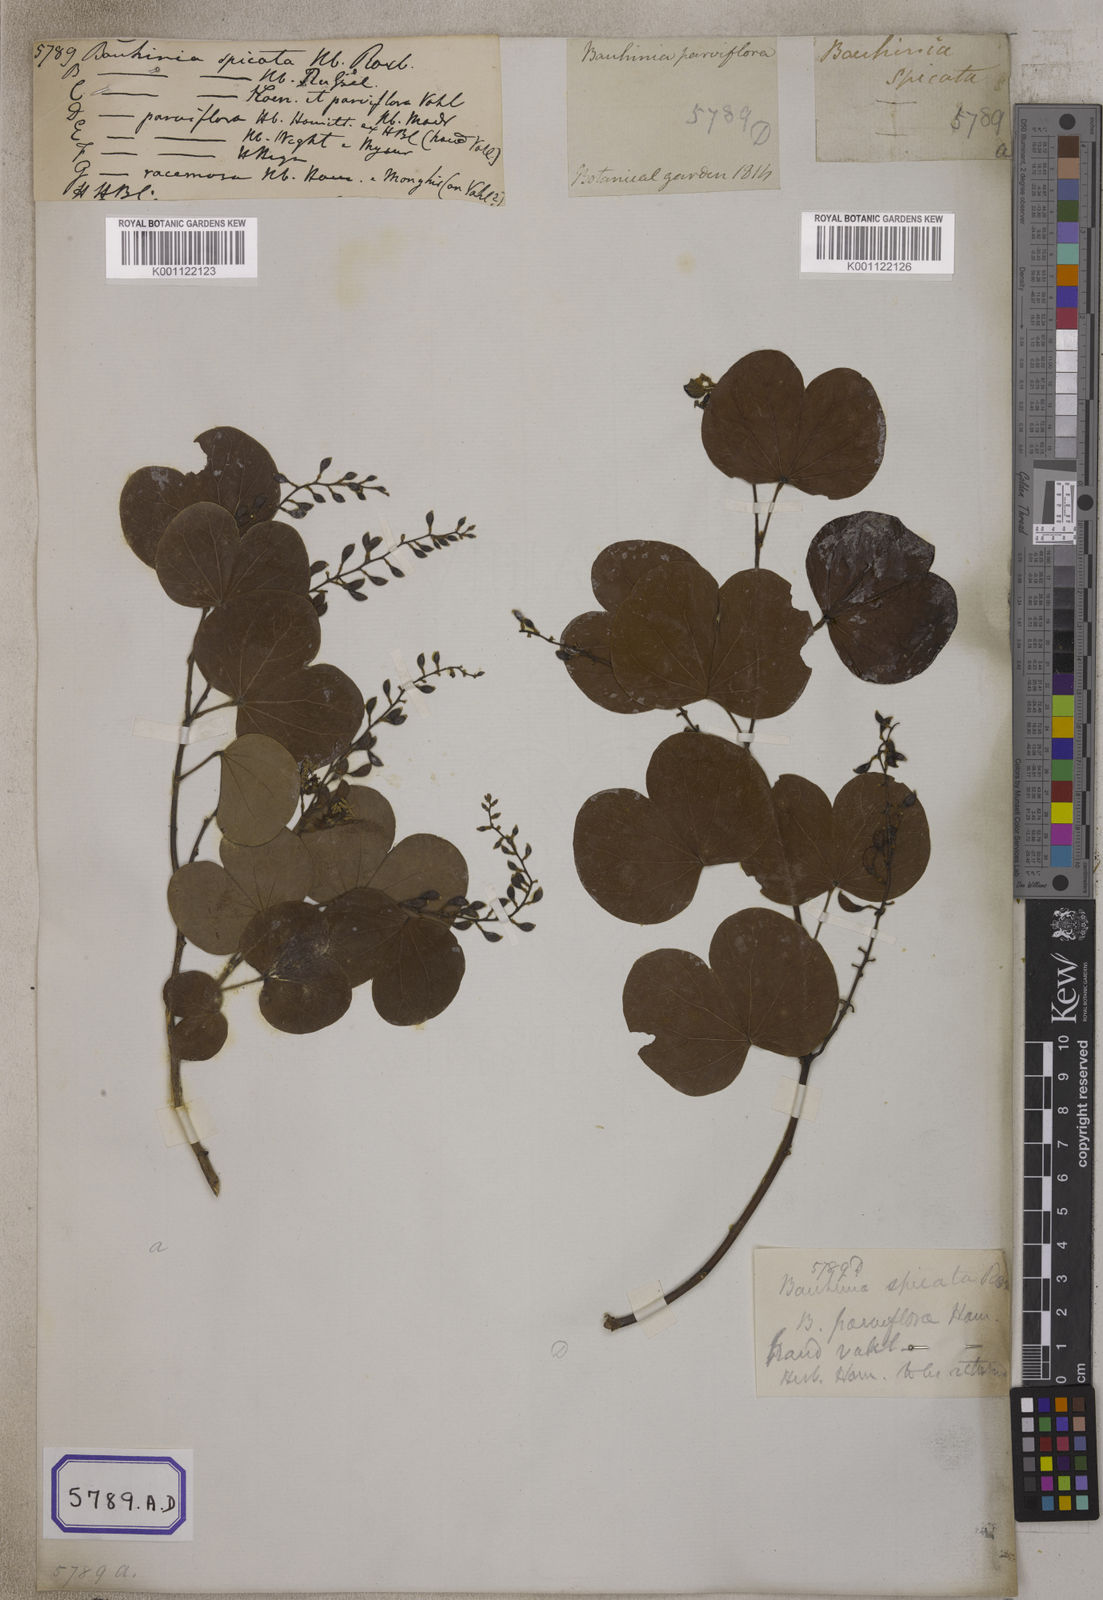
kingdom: Plantae
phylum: Tracheophyta
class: Magnoliopsida
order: Fabales
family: Fabaceae
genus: Bauhinia
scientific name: Bauhinia
